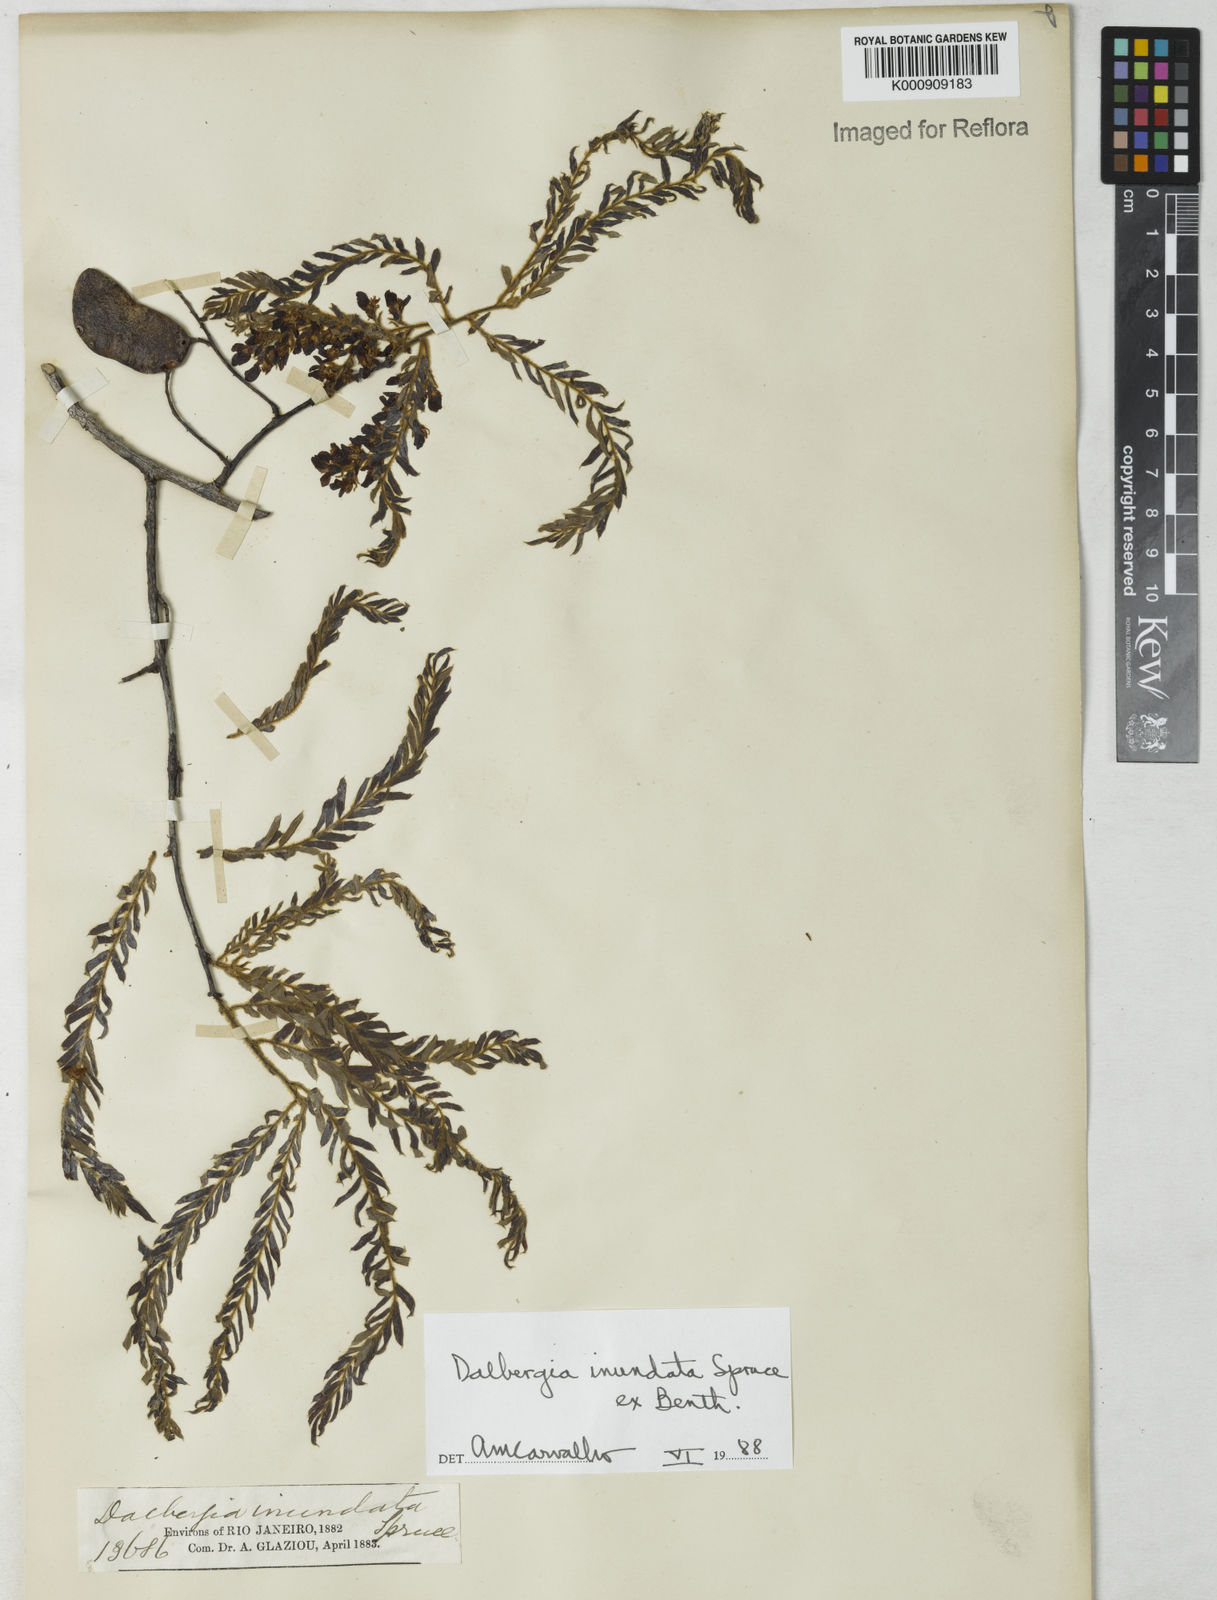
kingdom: Plantae
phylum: Tracheophyta
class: Magnoliopsida
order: Fabales
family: Fabaceae
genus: Dalbergia
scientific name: Dalbergia inundata
